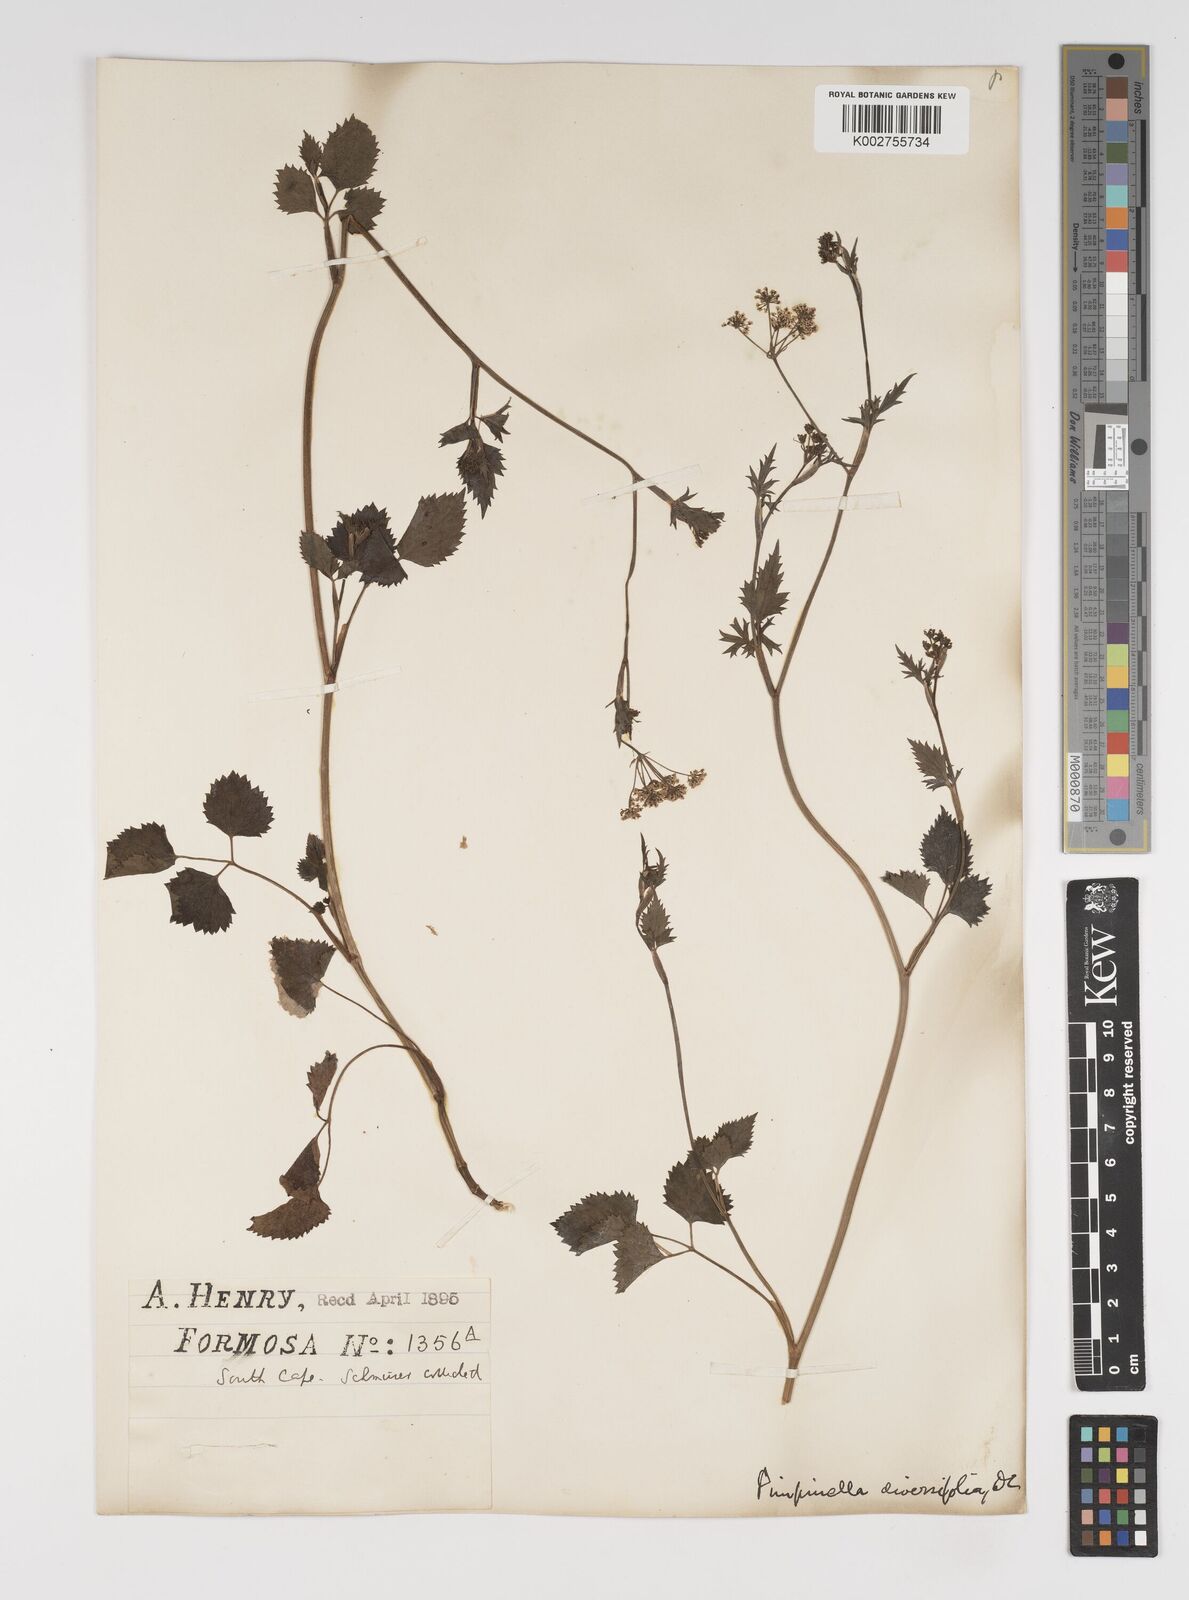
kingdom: Plantae
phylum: Tracheophyta
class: Magnoliopsida
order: Apiales
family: Apiaceae
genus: Pimpinella
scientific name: Pimpinella diversifolia
